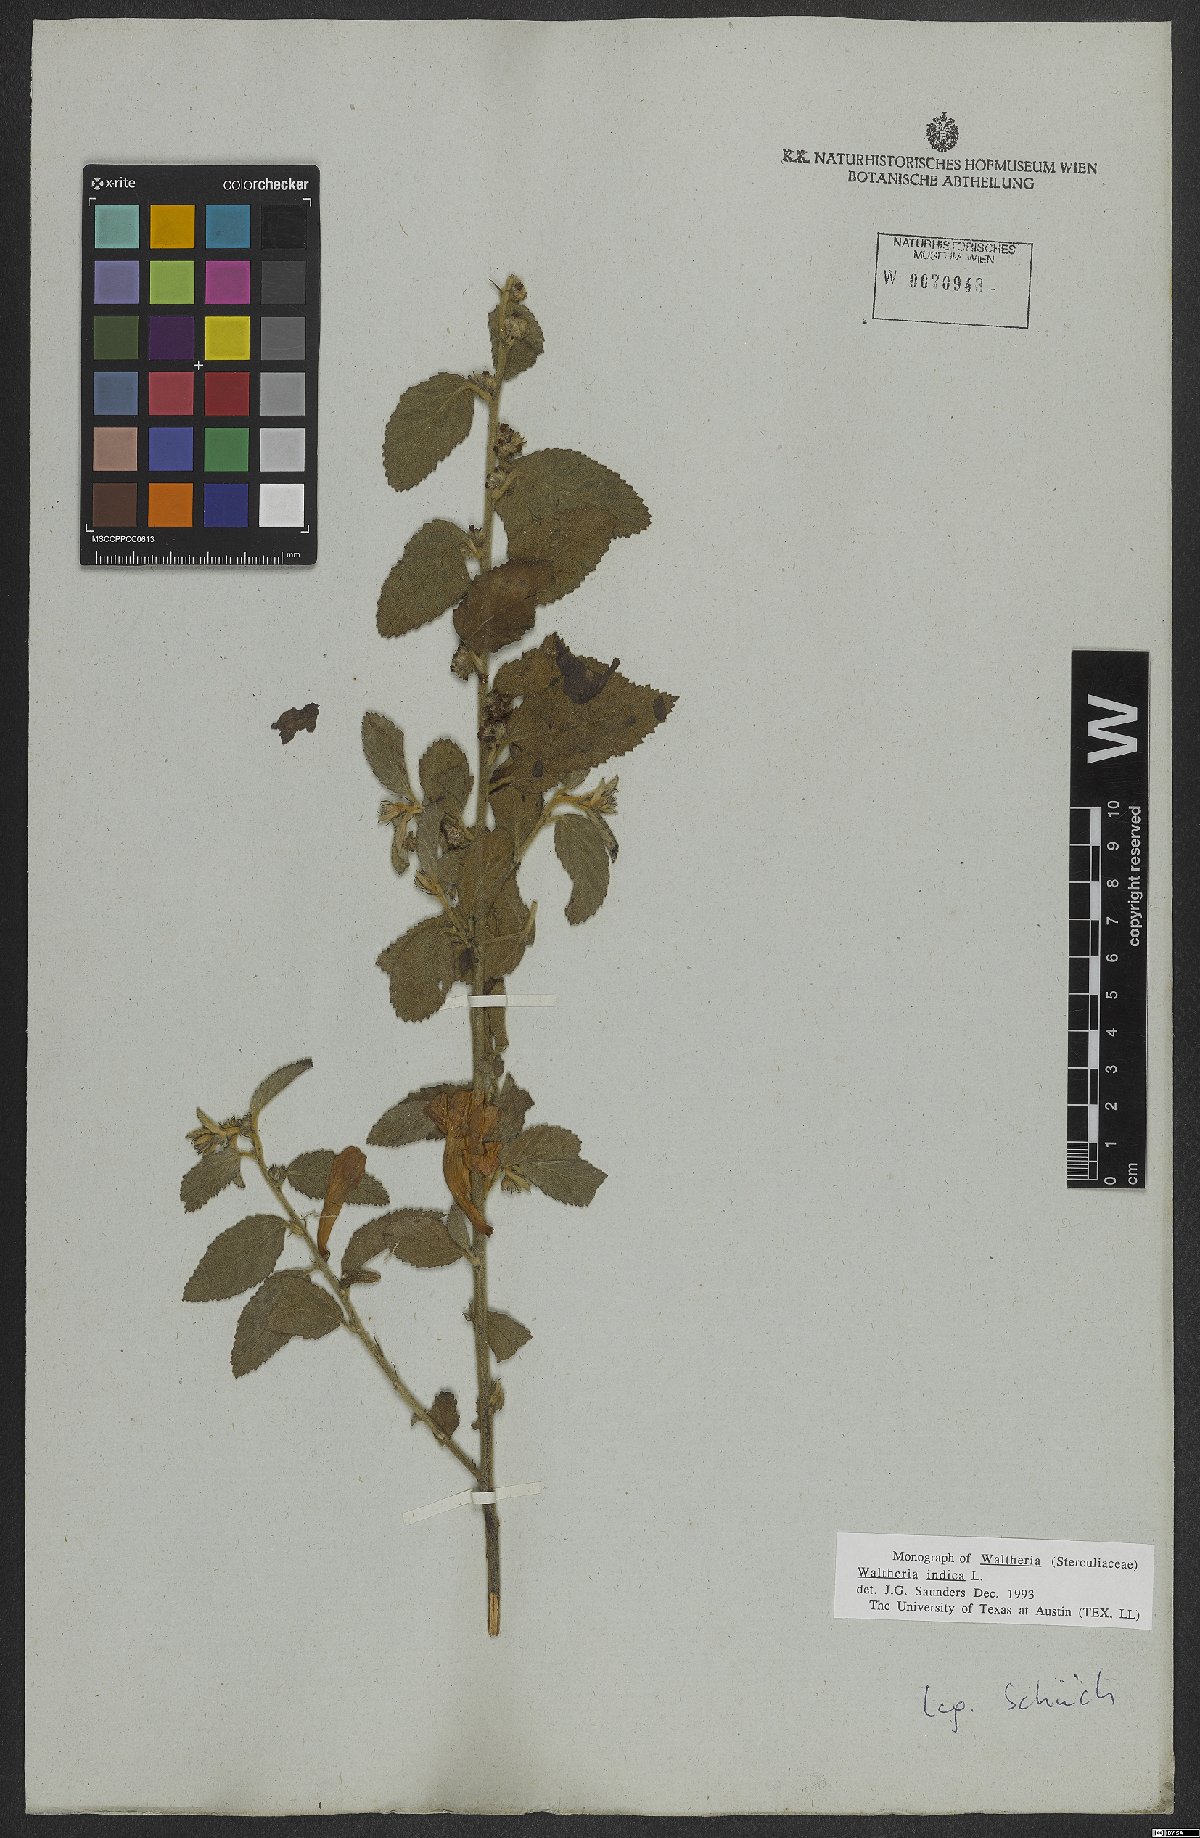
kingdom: Plantae
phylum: Tracheophyta
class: Magnoliopsida
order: Malvales
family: Malvaceae
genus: Waltheria
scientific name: Waltheria indica
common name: Leather-coat
